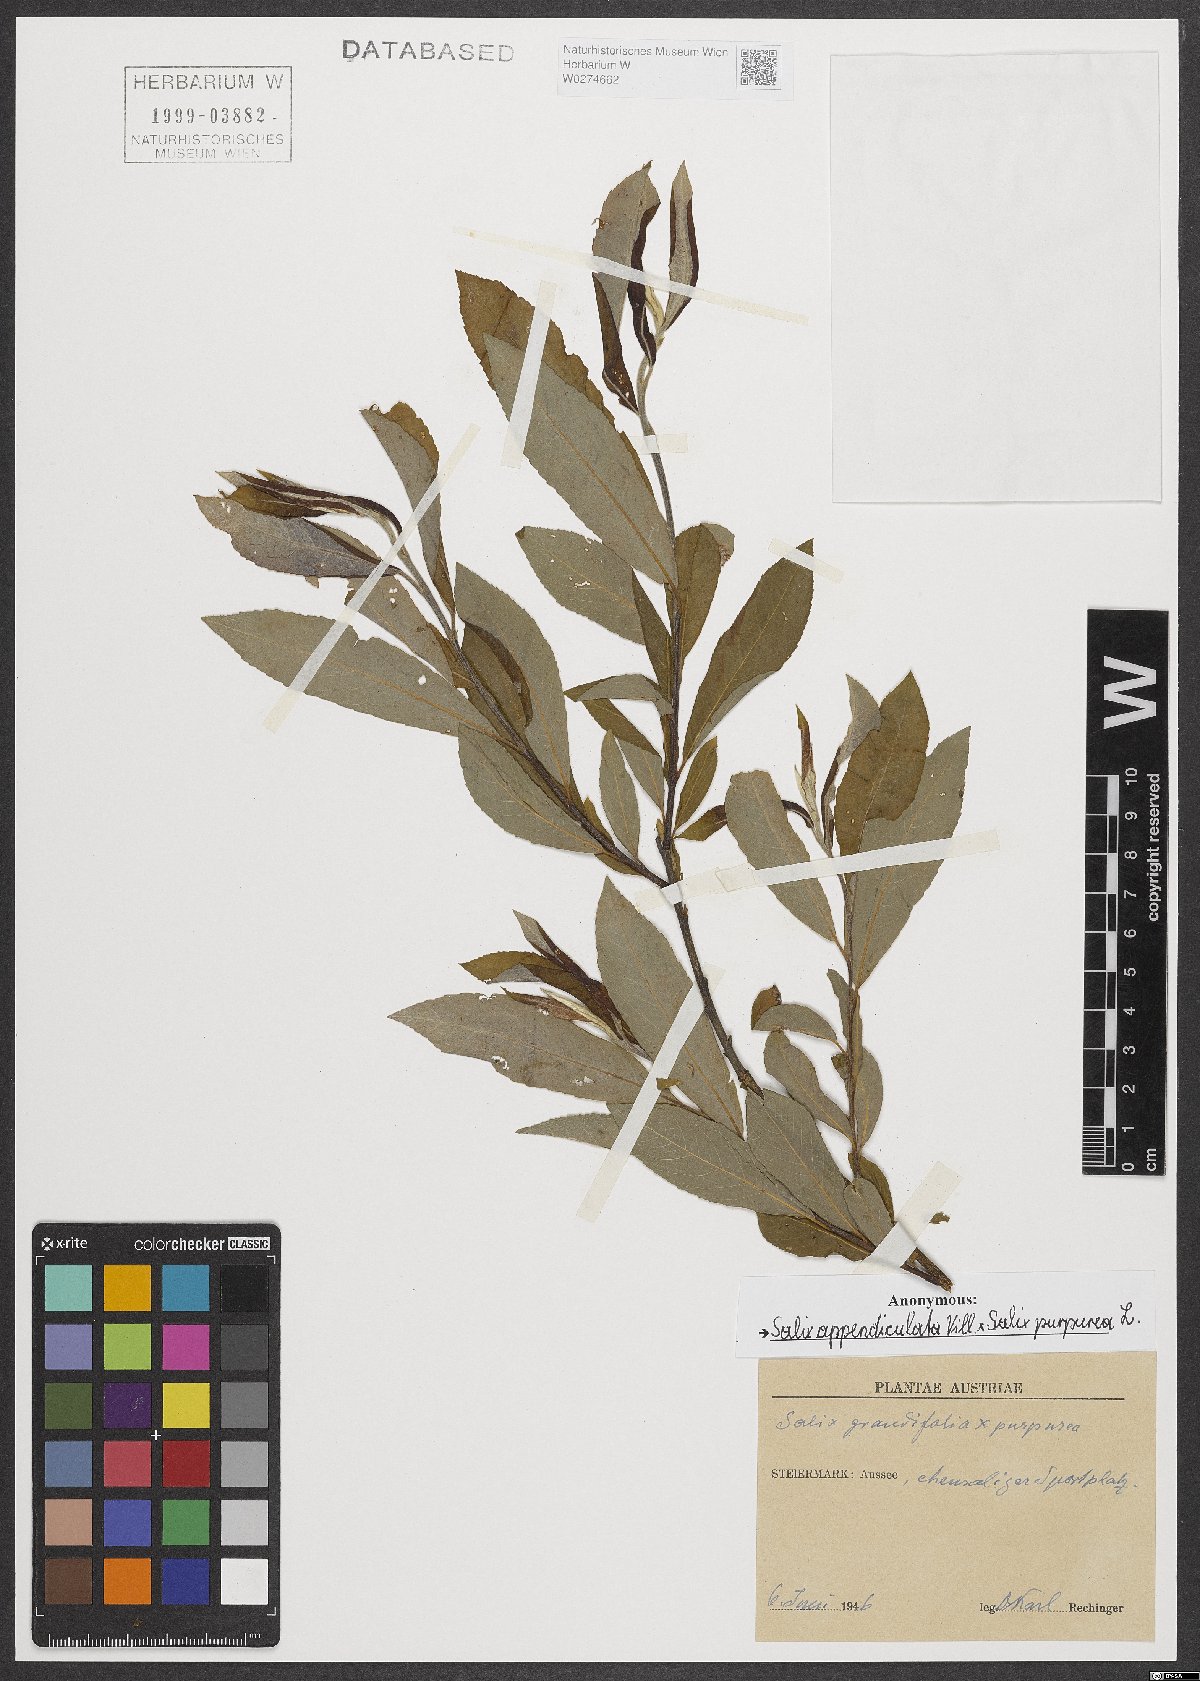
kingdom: Plantae
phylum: Tracheophyta
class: Magnoliopsida
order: Malpighiales
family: Salicaceae
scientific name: Salicaceae
